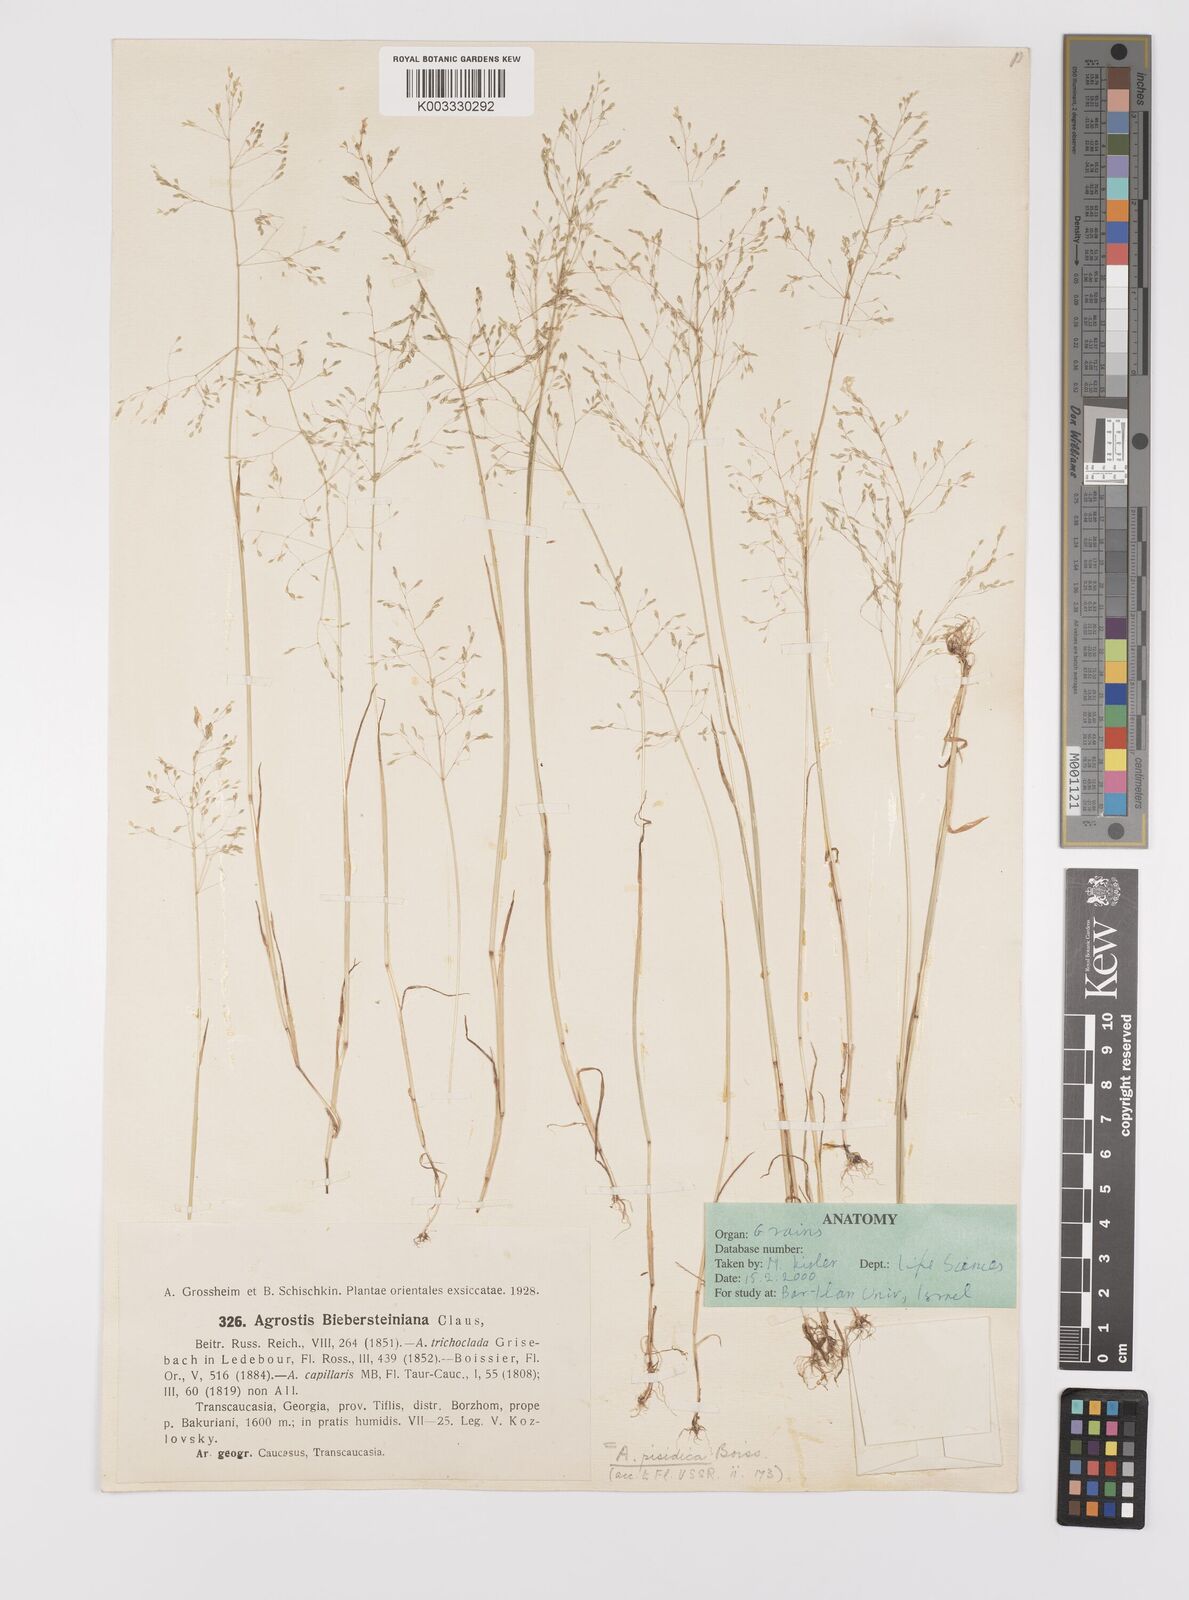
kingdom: Plantae
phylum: Tracheophyta
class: Liliopsida
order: Poales
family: Poaceae
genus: Colpodium
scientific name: Colpodium pisidicum
